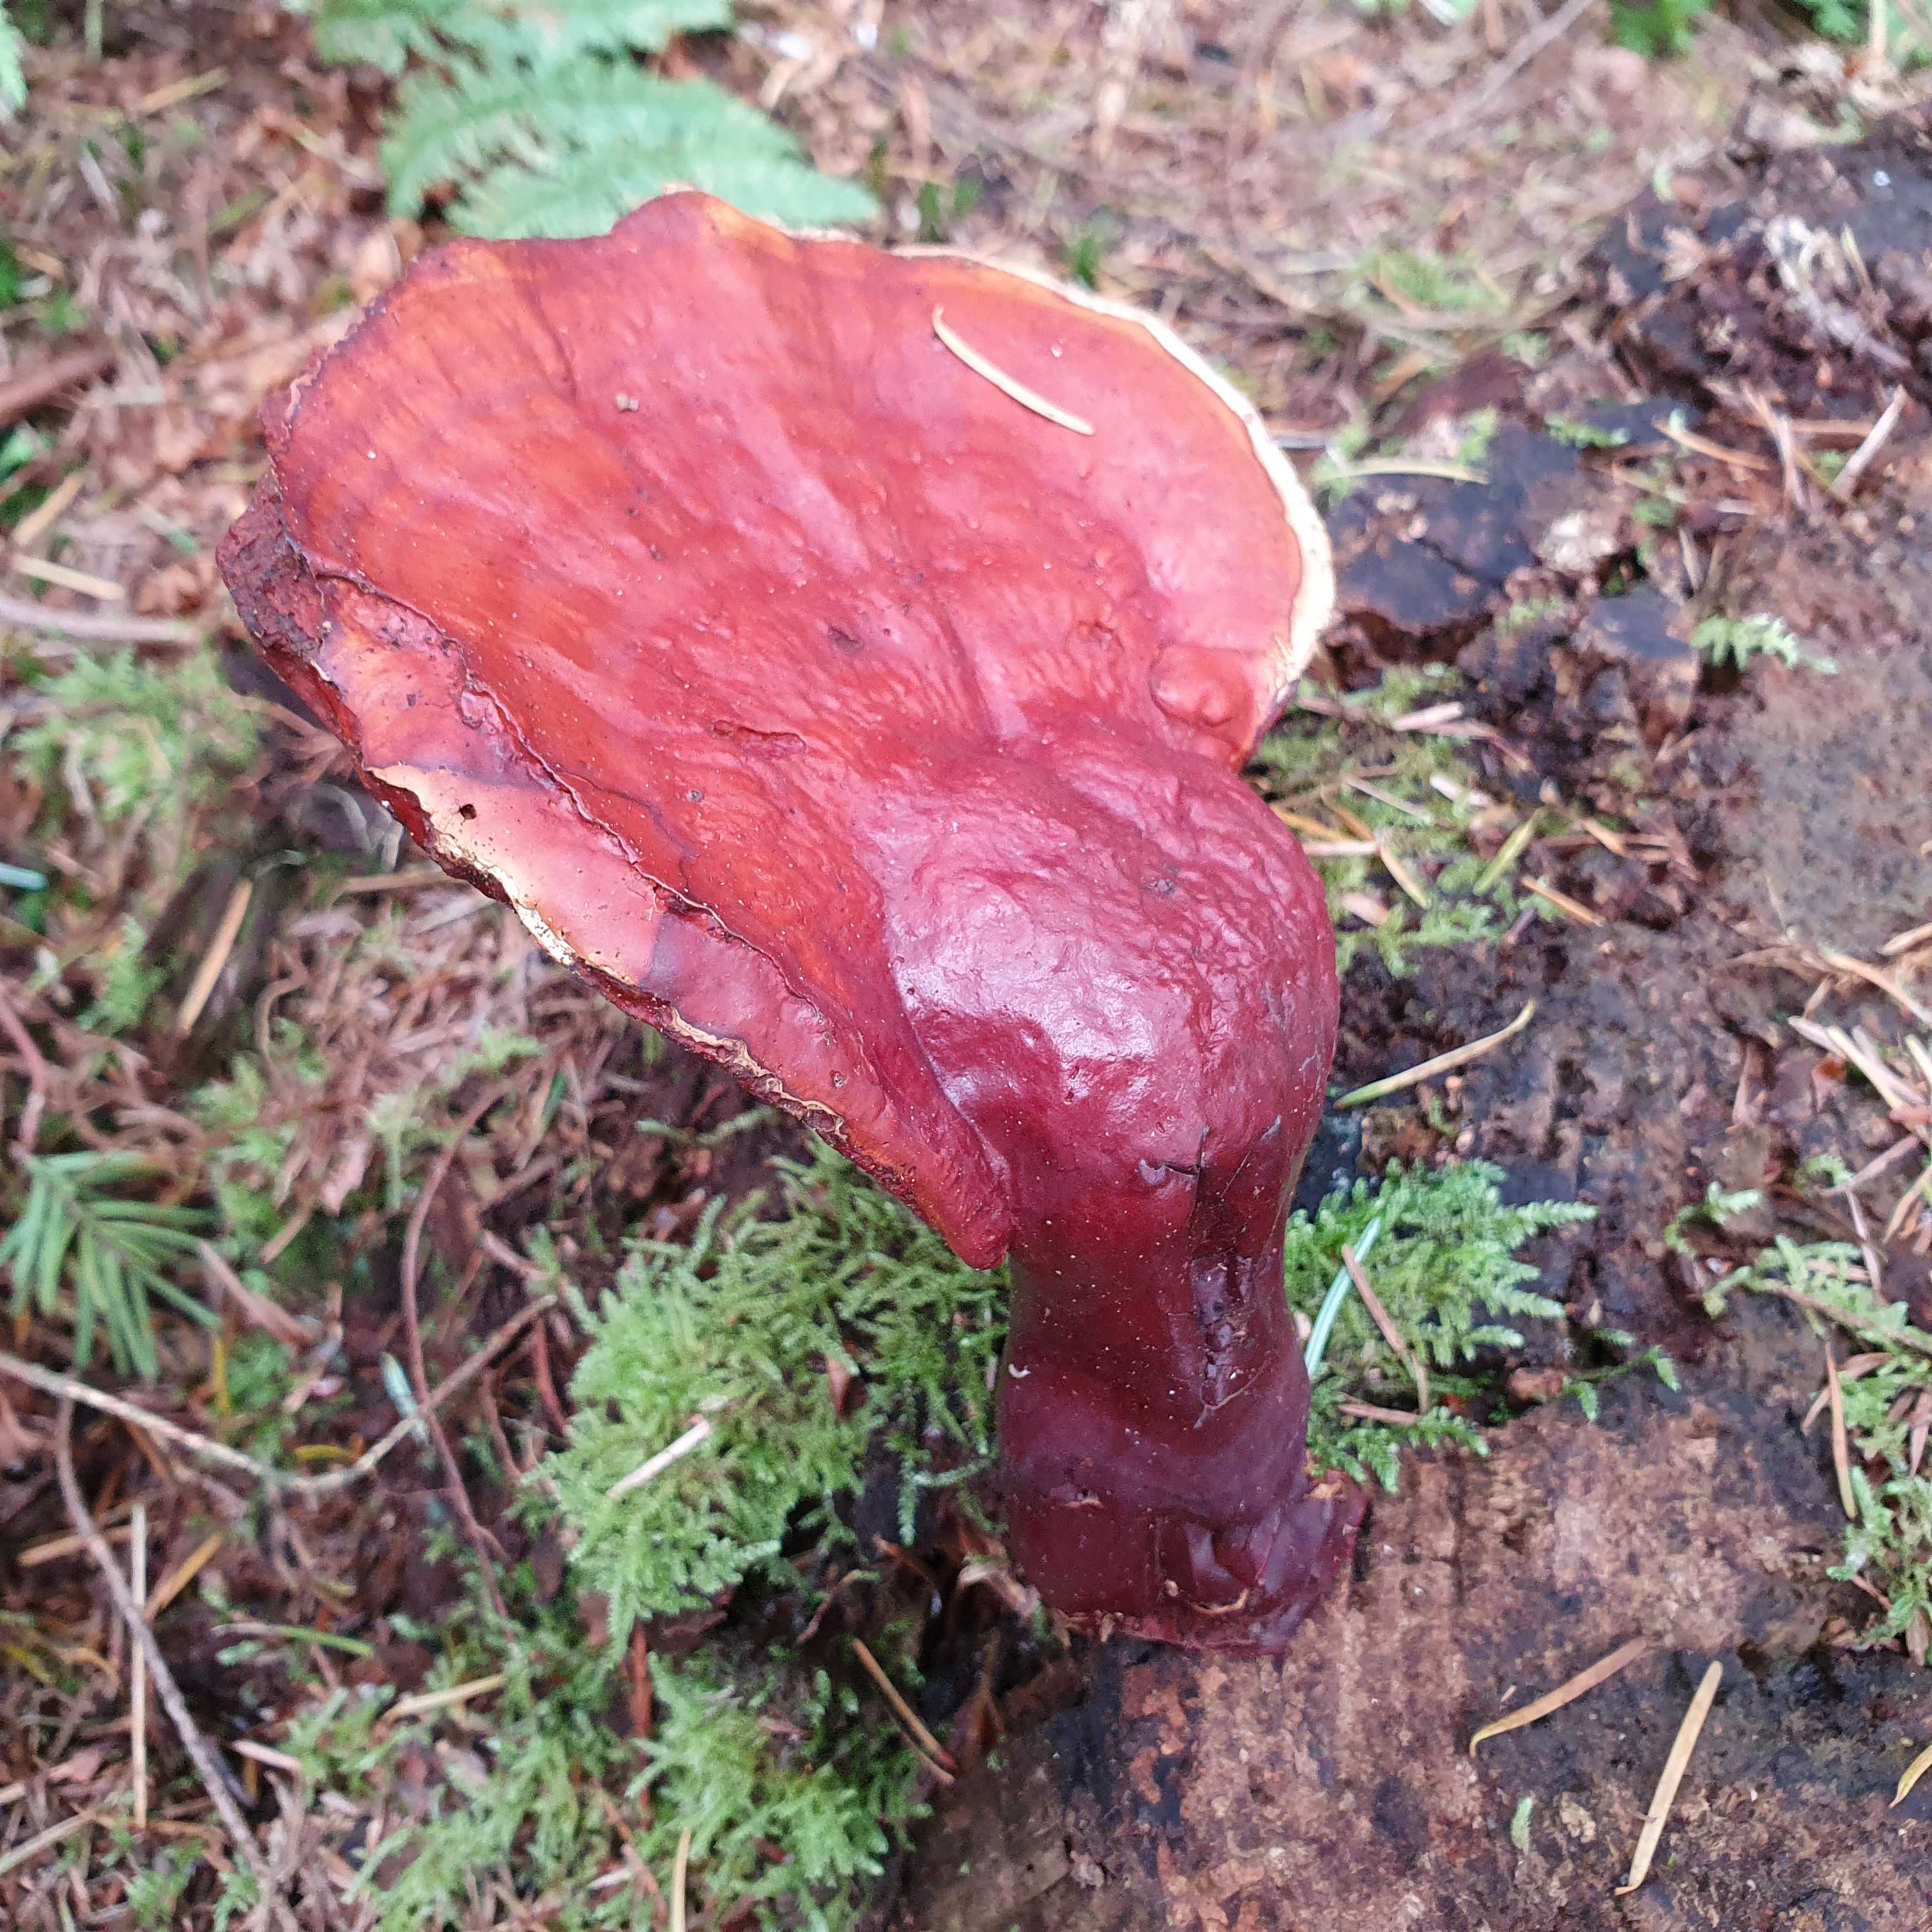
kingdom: Fungi
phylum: Basidiomycota
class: Agaricomycetes
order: Polyporales
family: Polyporaceae
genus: Ganoderma
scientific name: Ganoderma lucidum
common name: skinnende lakporesvamp
